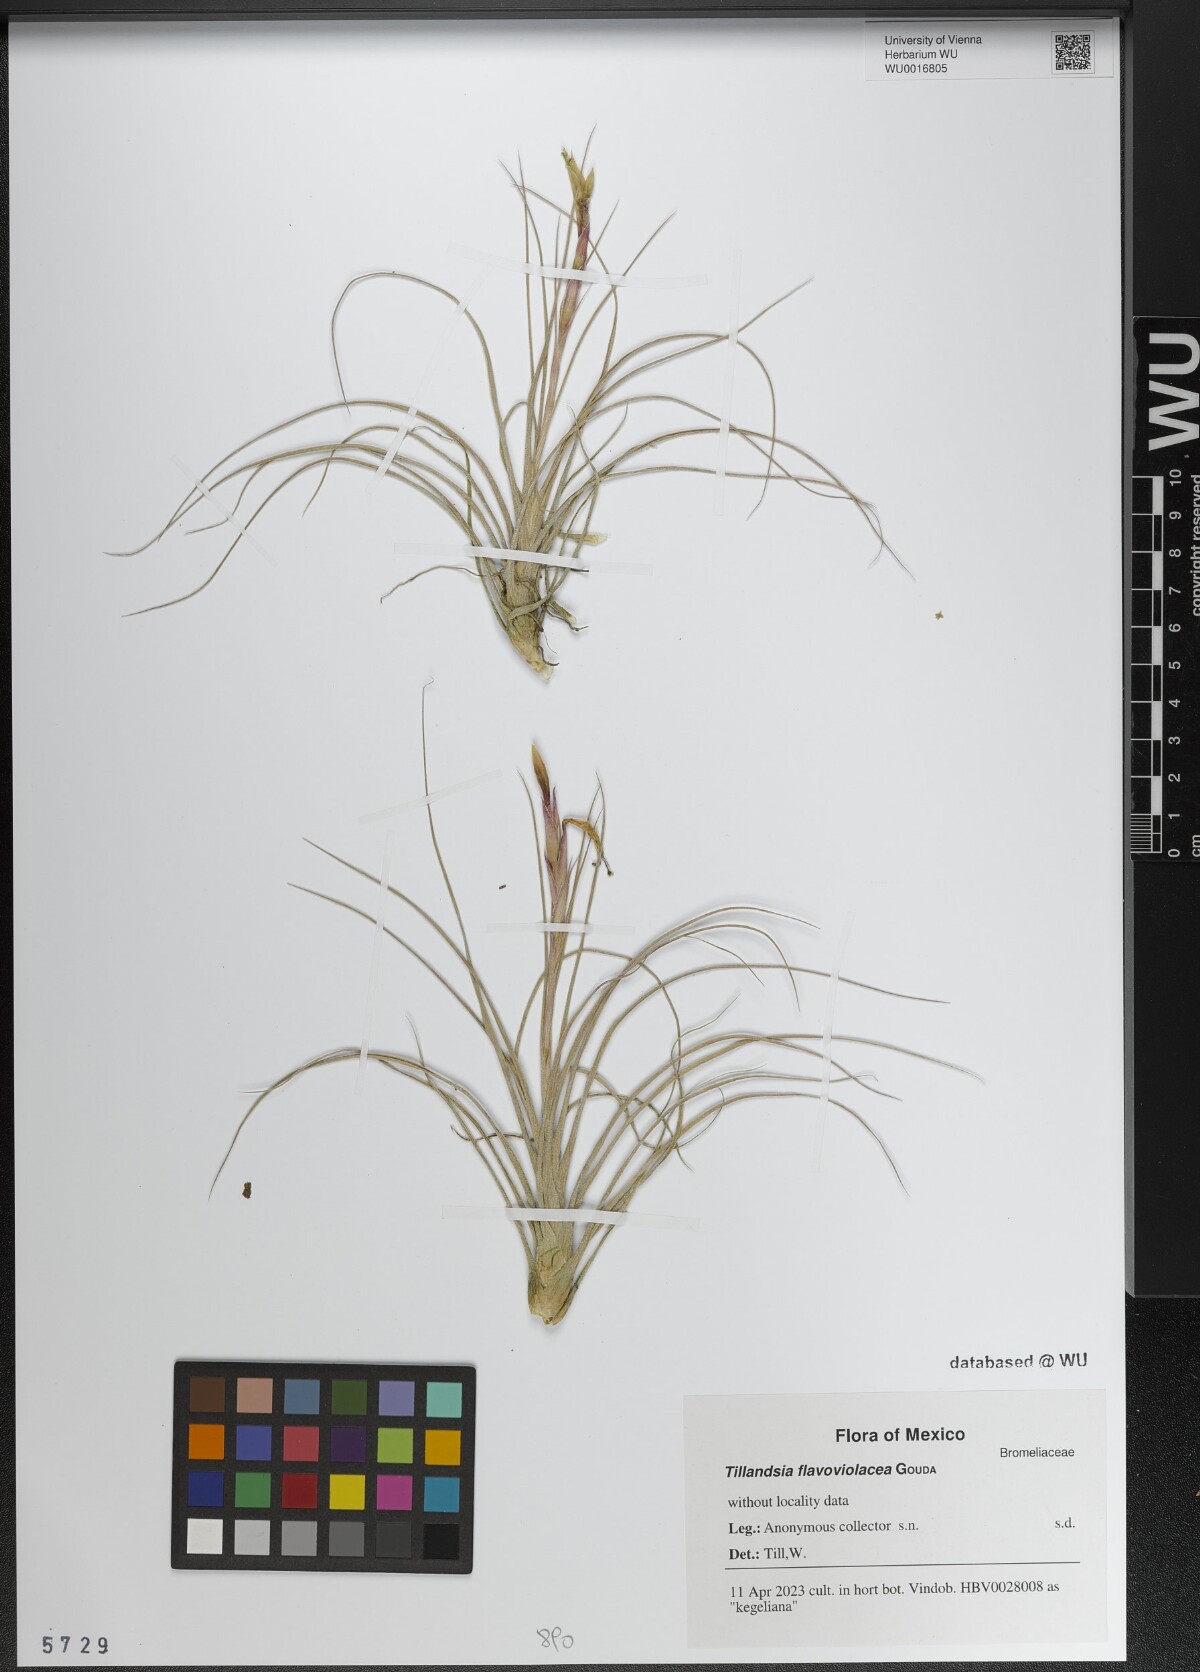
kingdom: Plantae
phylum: Tracheophyta
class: Liliopsida
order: Poales
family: Bromeliaceae
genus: Tillandsia
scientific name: Tillandsia flavoviolacea
